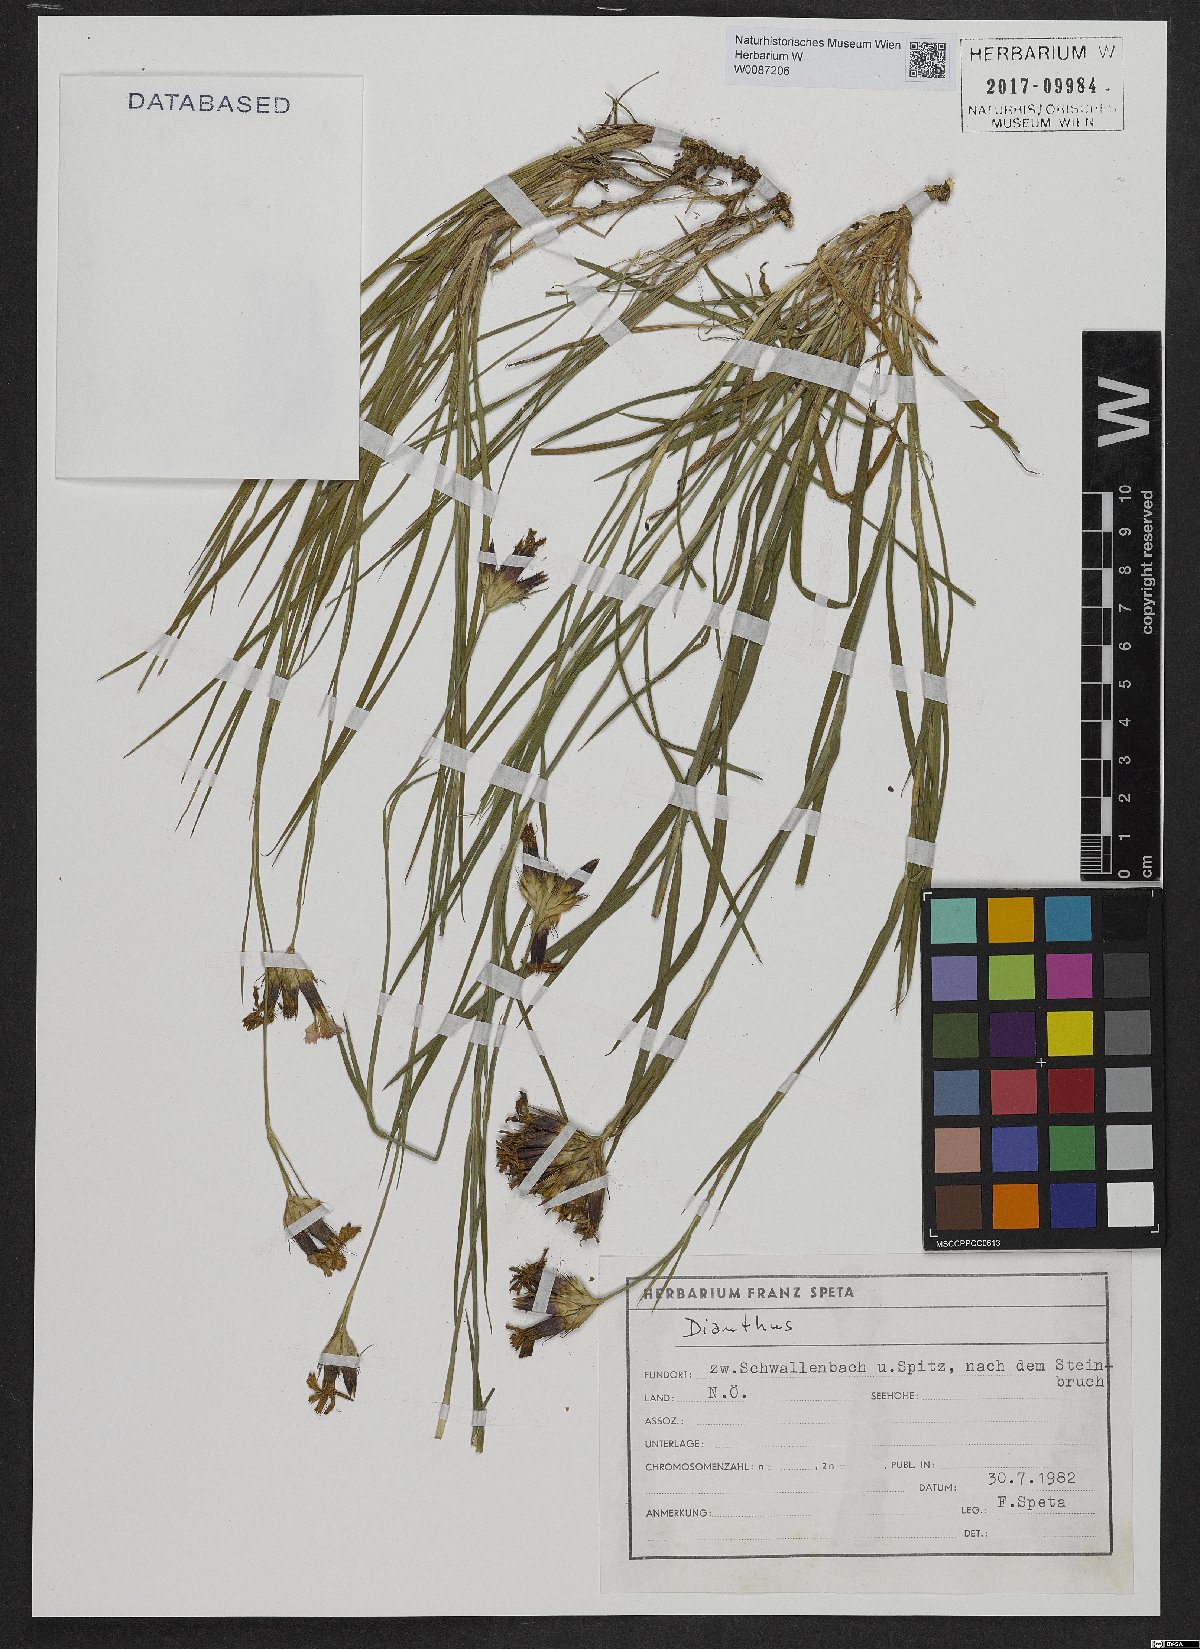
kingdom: Plantae
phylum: Tracheophyta
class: Magnoliopsida
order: Caryophyllales
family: Caryophyllaceae
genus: Dianthus
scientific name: Dianthus carthusianorum
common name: Carthusian pink
